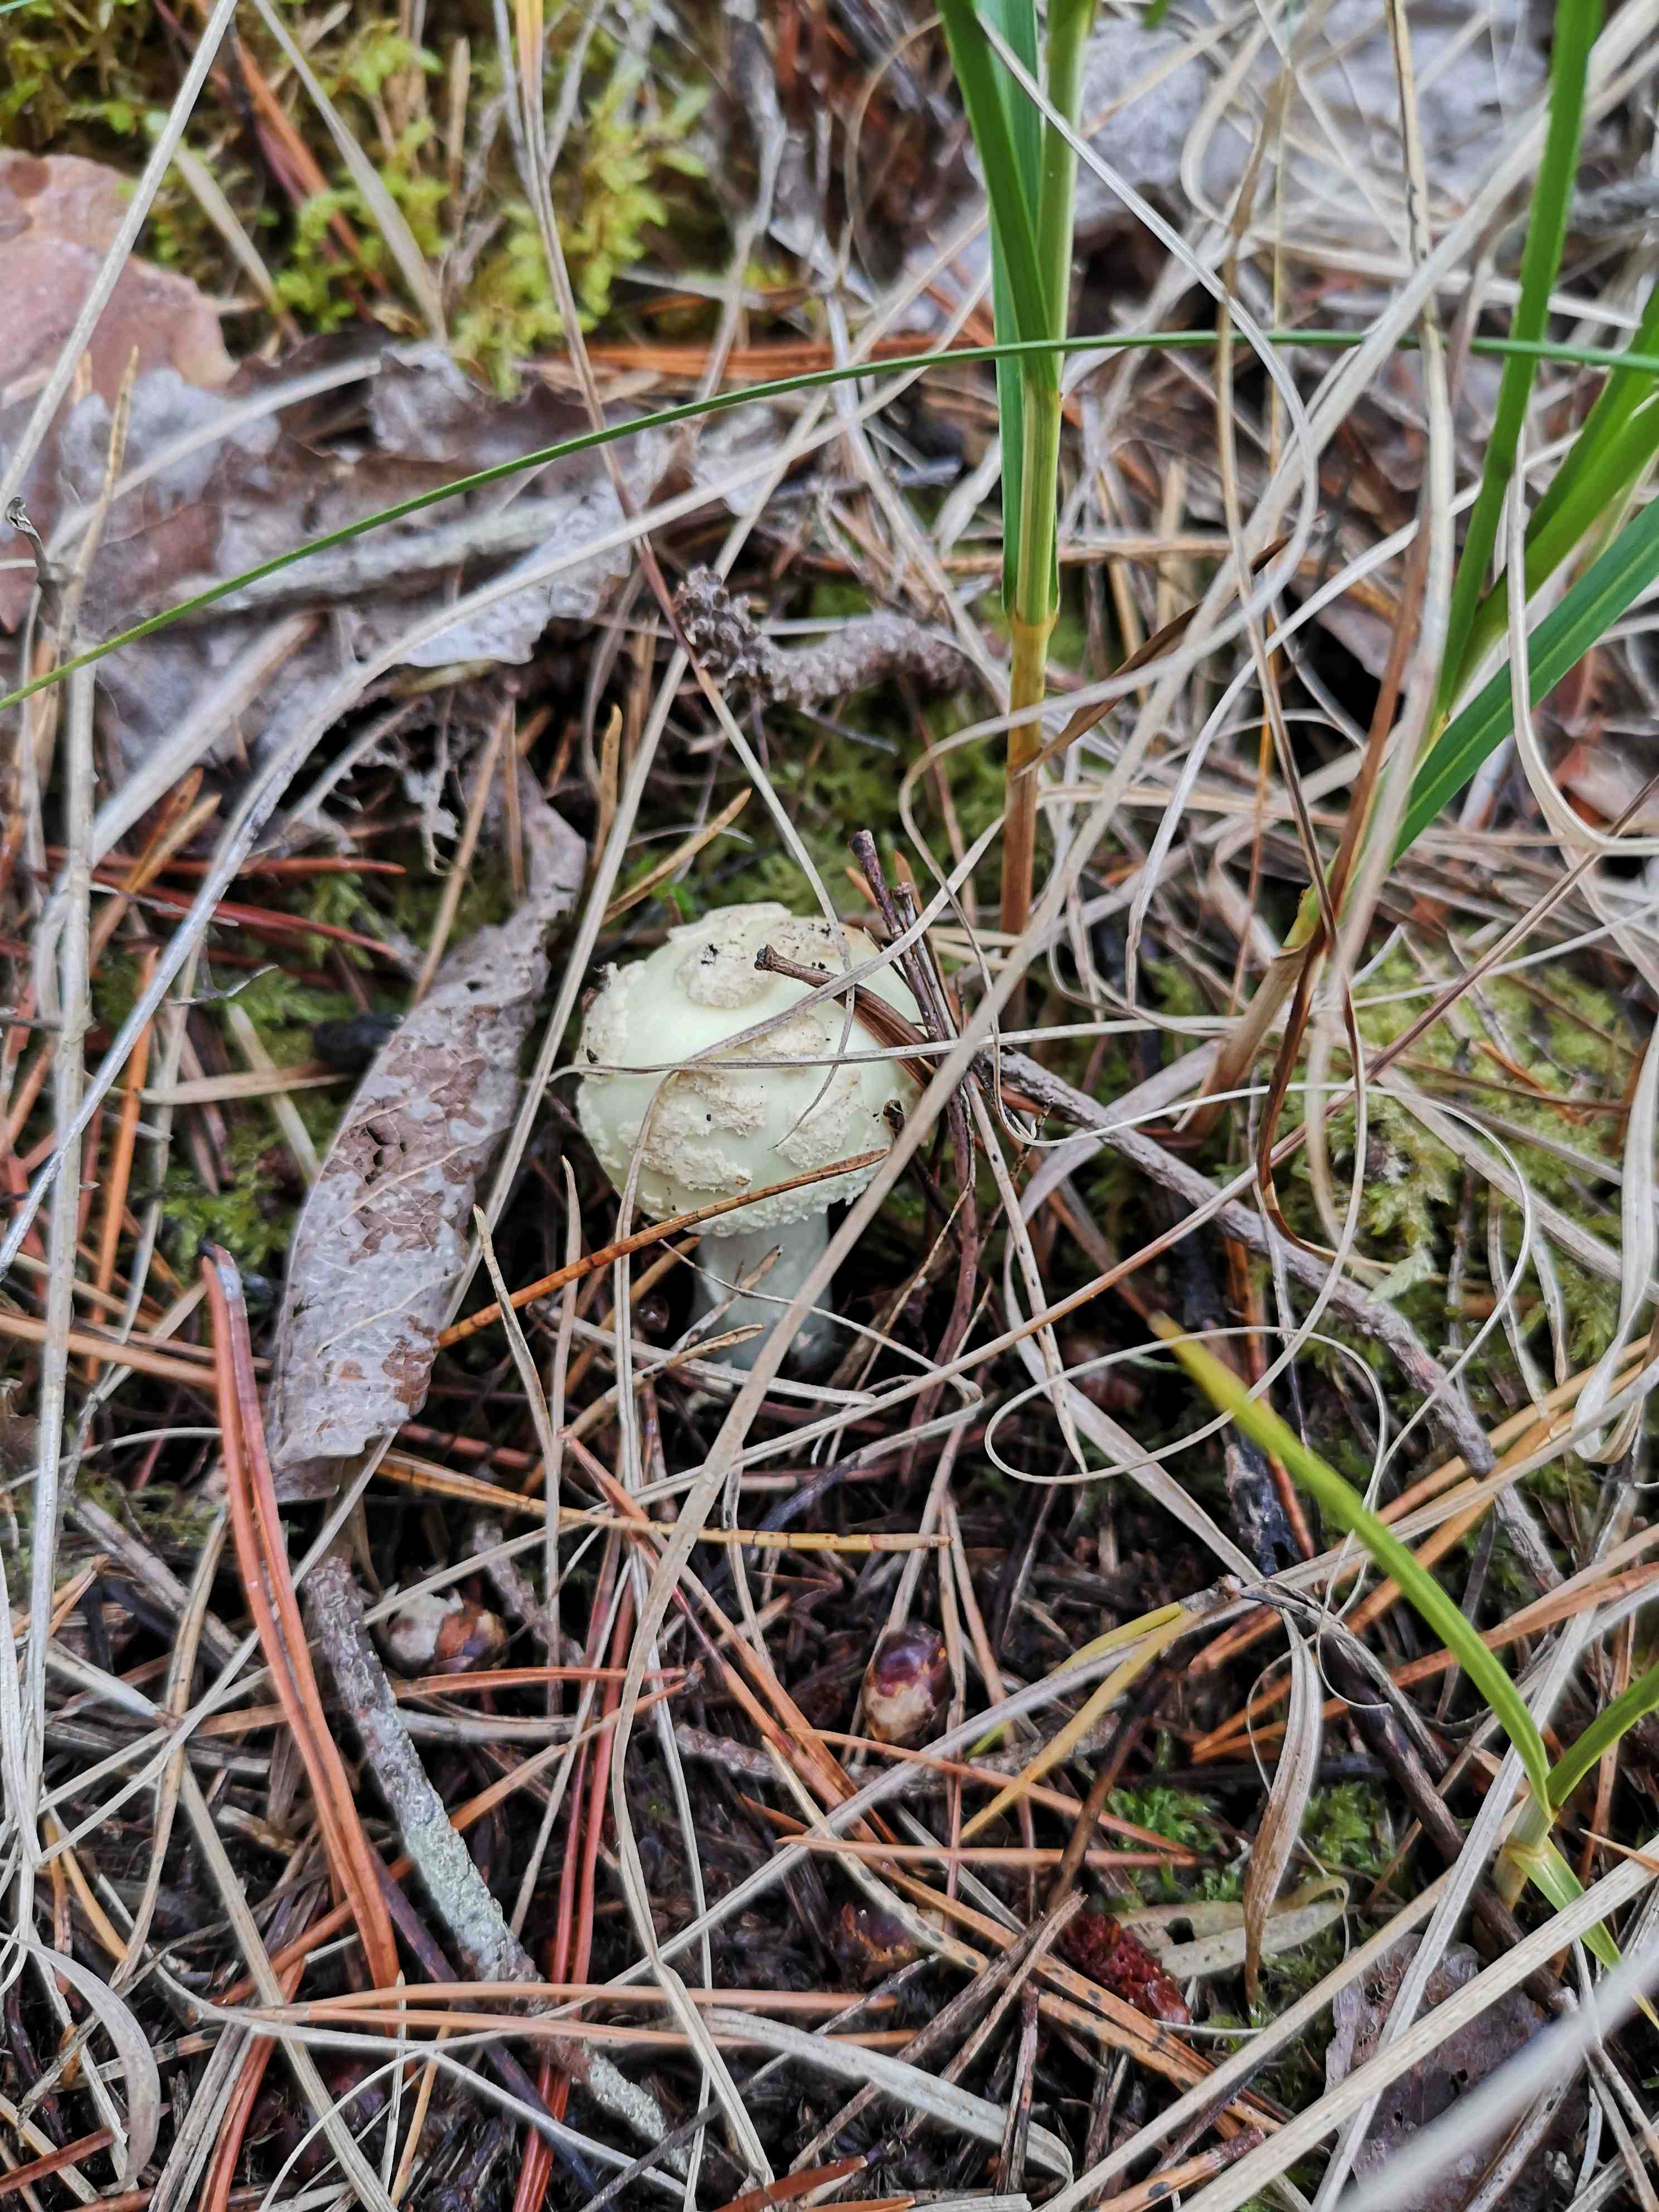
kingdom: Fungi
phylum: Basidiomycota
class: Agaricomycetes
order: Agaricales
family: Amanitaceae
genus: Amanita
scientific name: Amanita citrina
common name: kugleknoldet fluesvamp
